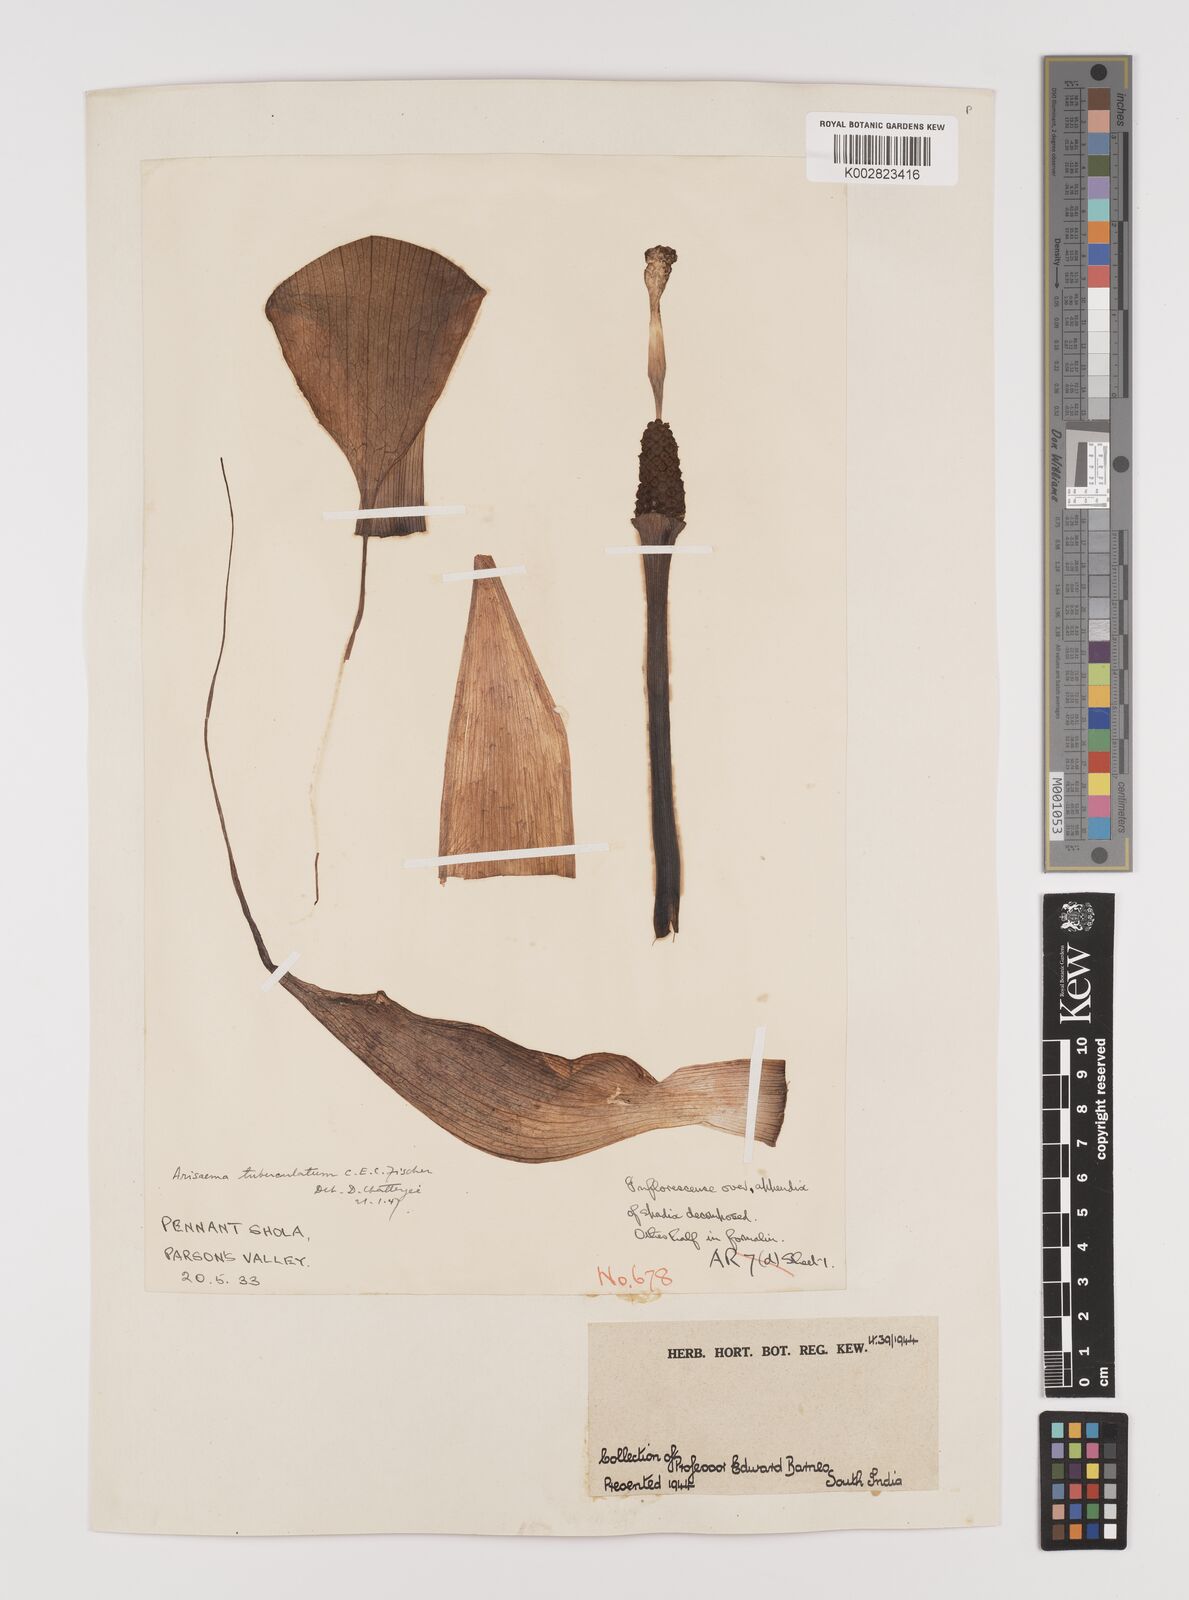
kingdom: Plantae
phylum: Tracheophyta
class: Liliopsida
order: Alismatales
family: Araceae
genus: Arisaema
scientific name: Arisaema tuberculatum
